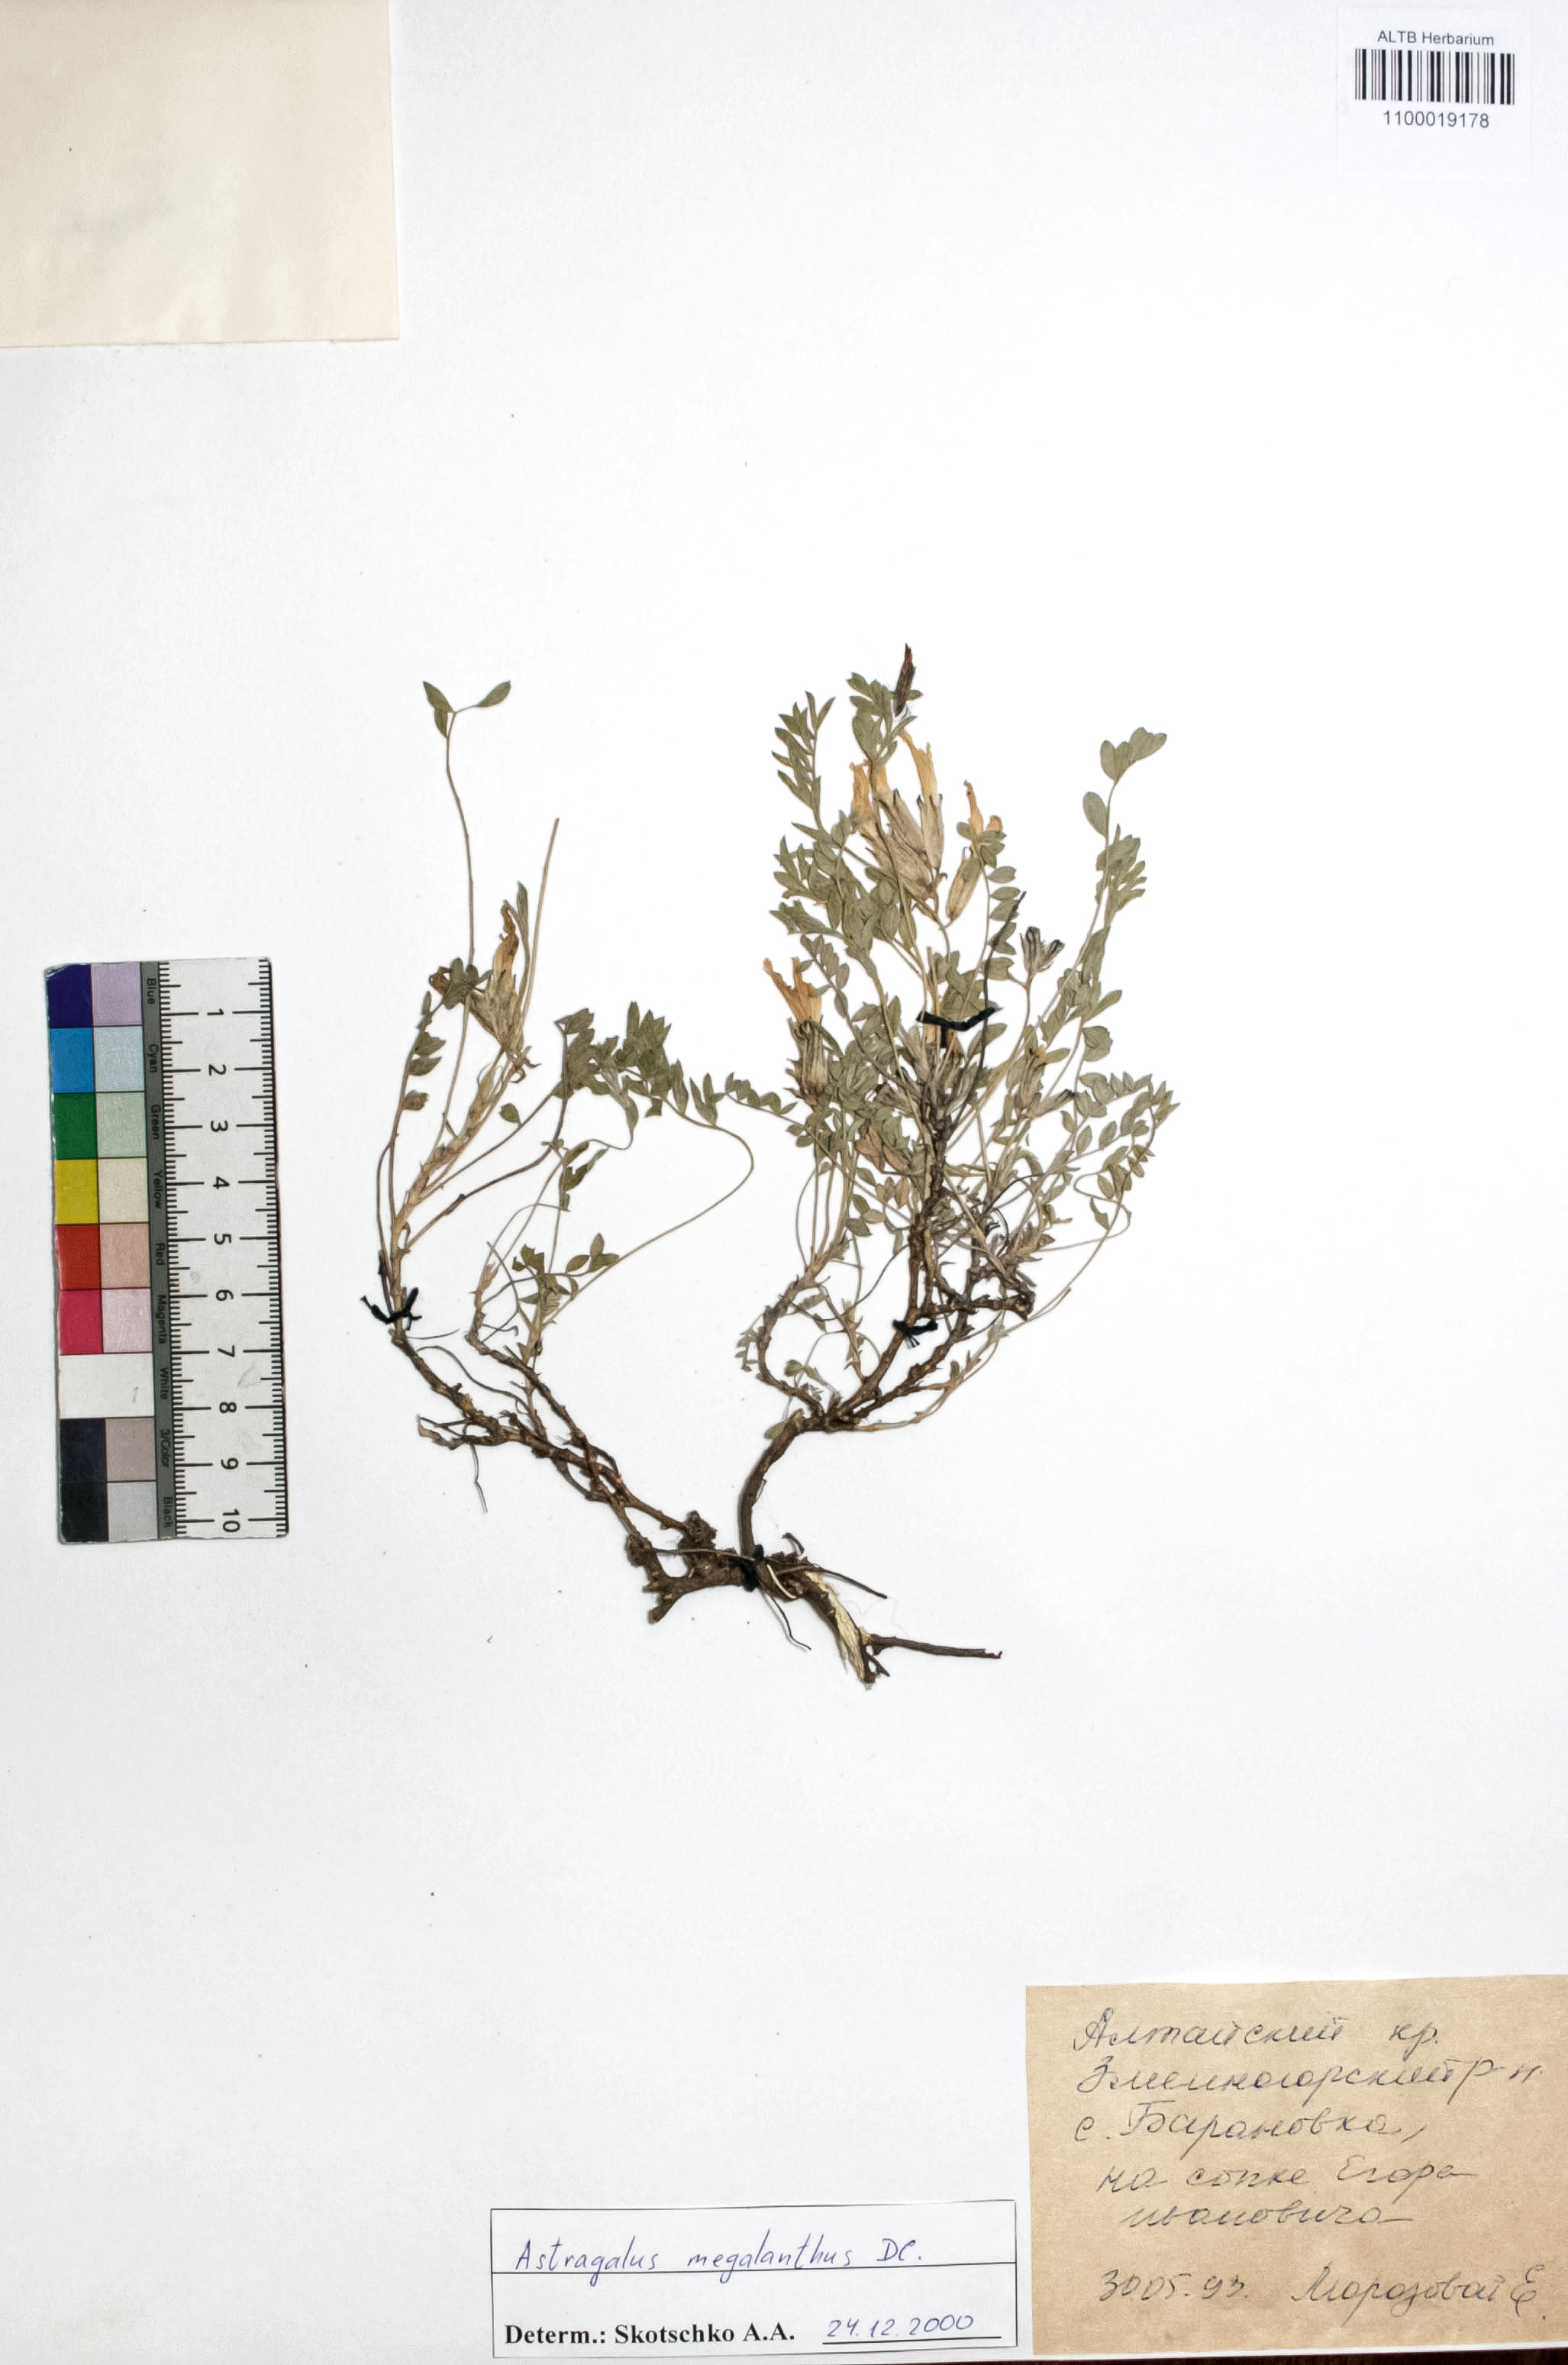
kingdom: Plantae
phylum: Tracheophyta
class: Magnoliopsida
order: Rosales
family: Rosaceae
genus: Cotoneaster
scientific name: Cotoneaster niger
